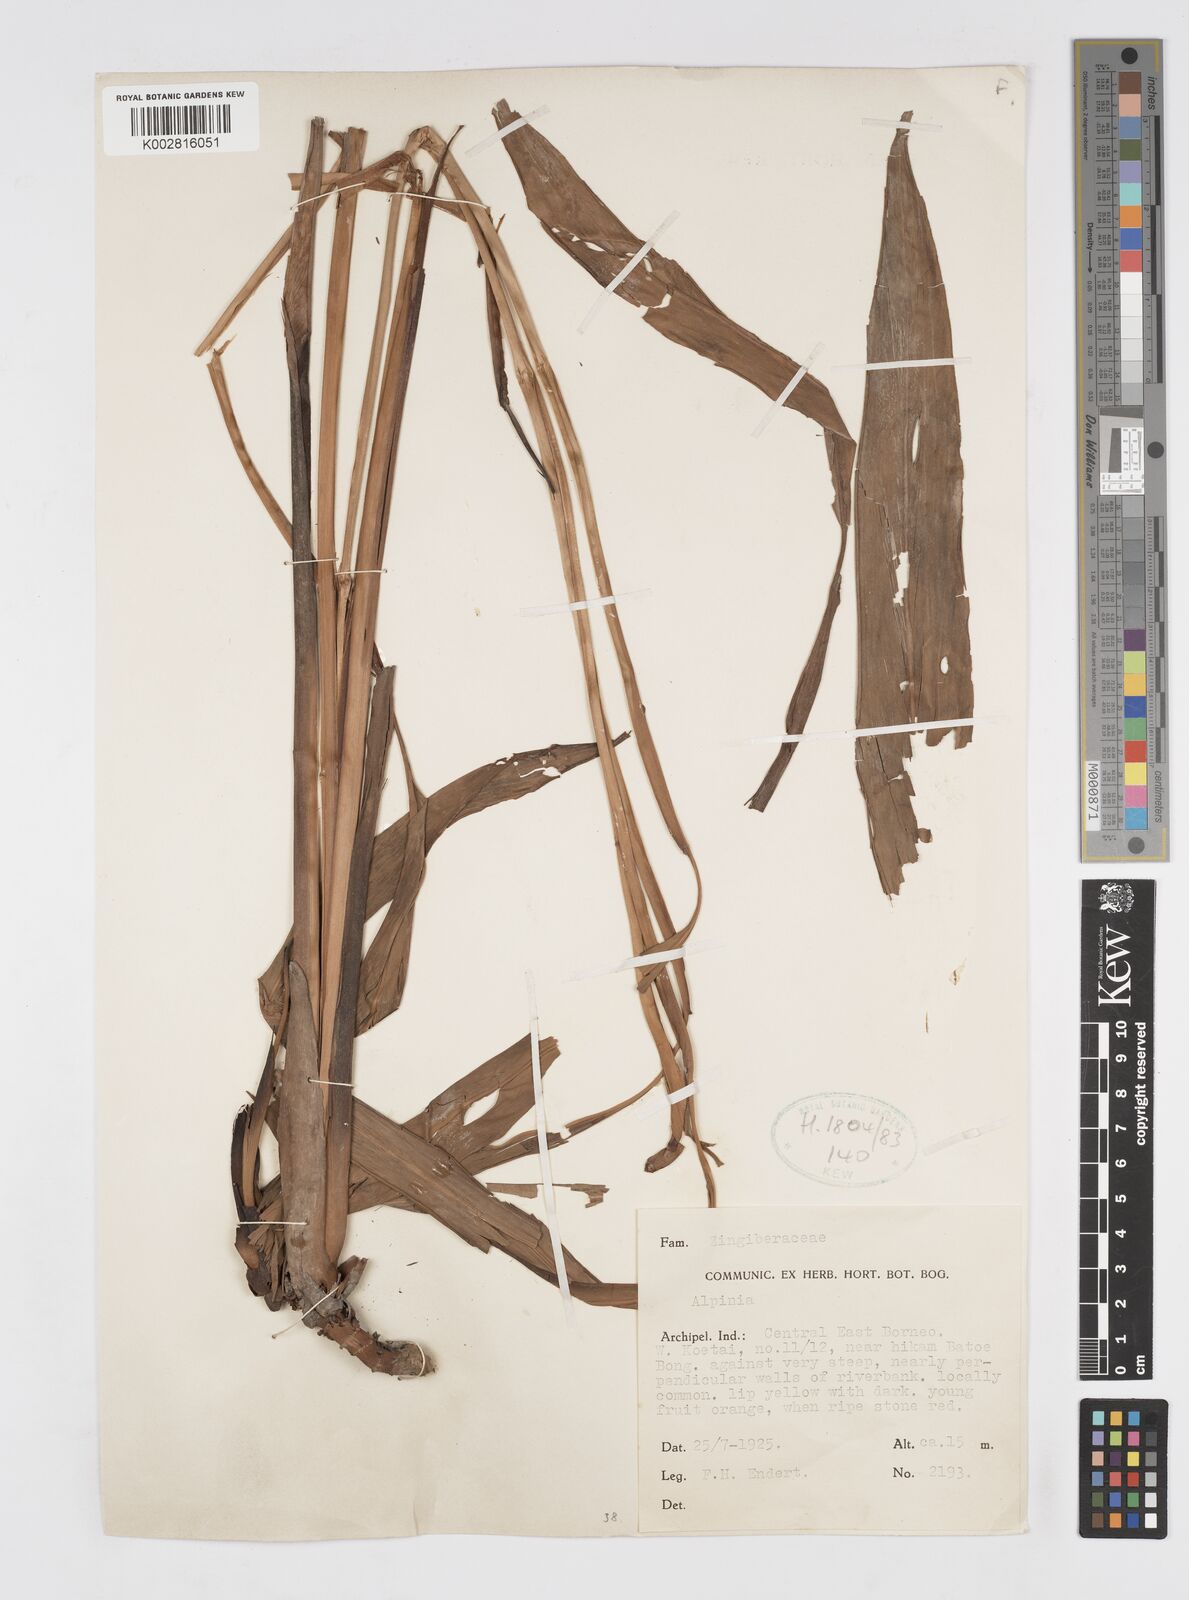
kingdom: Plantae
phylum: Tracheophyta
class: Liliopsida
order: Zingiberales
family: Zingiberaceae
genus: Alpinia
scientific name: Alpinia
